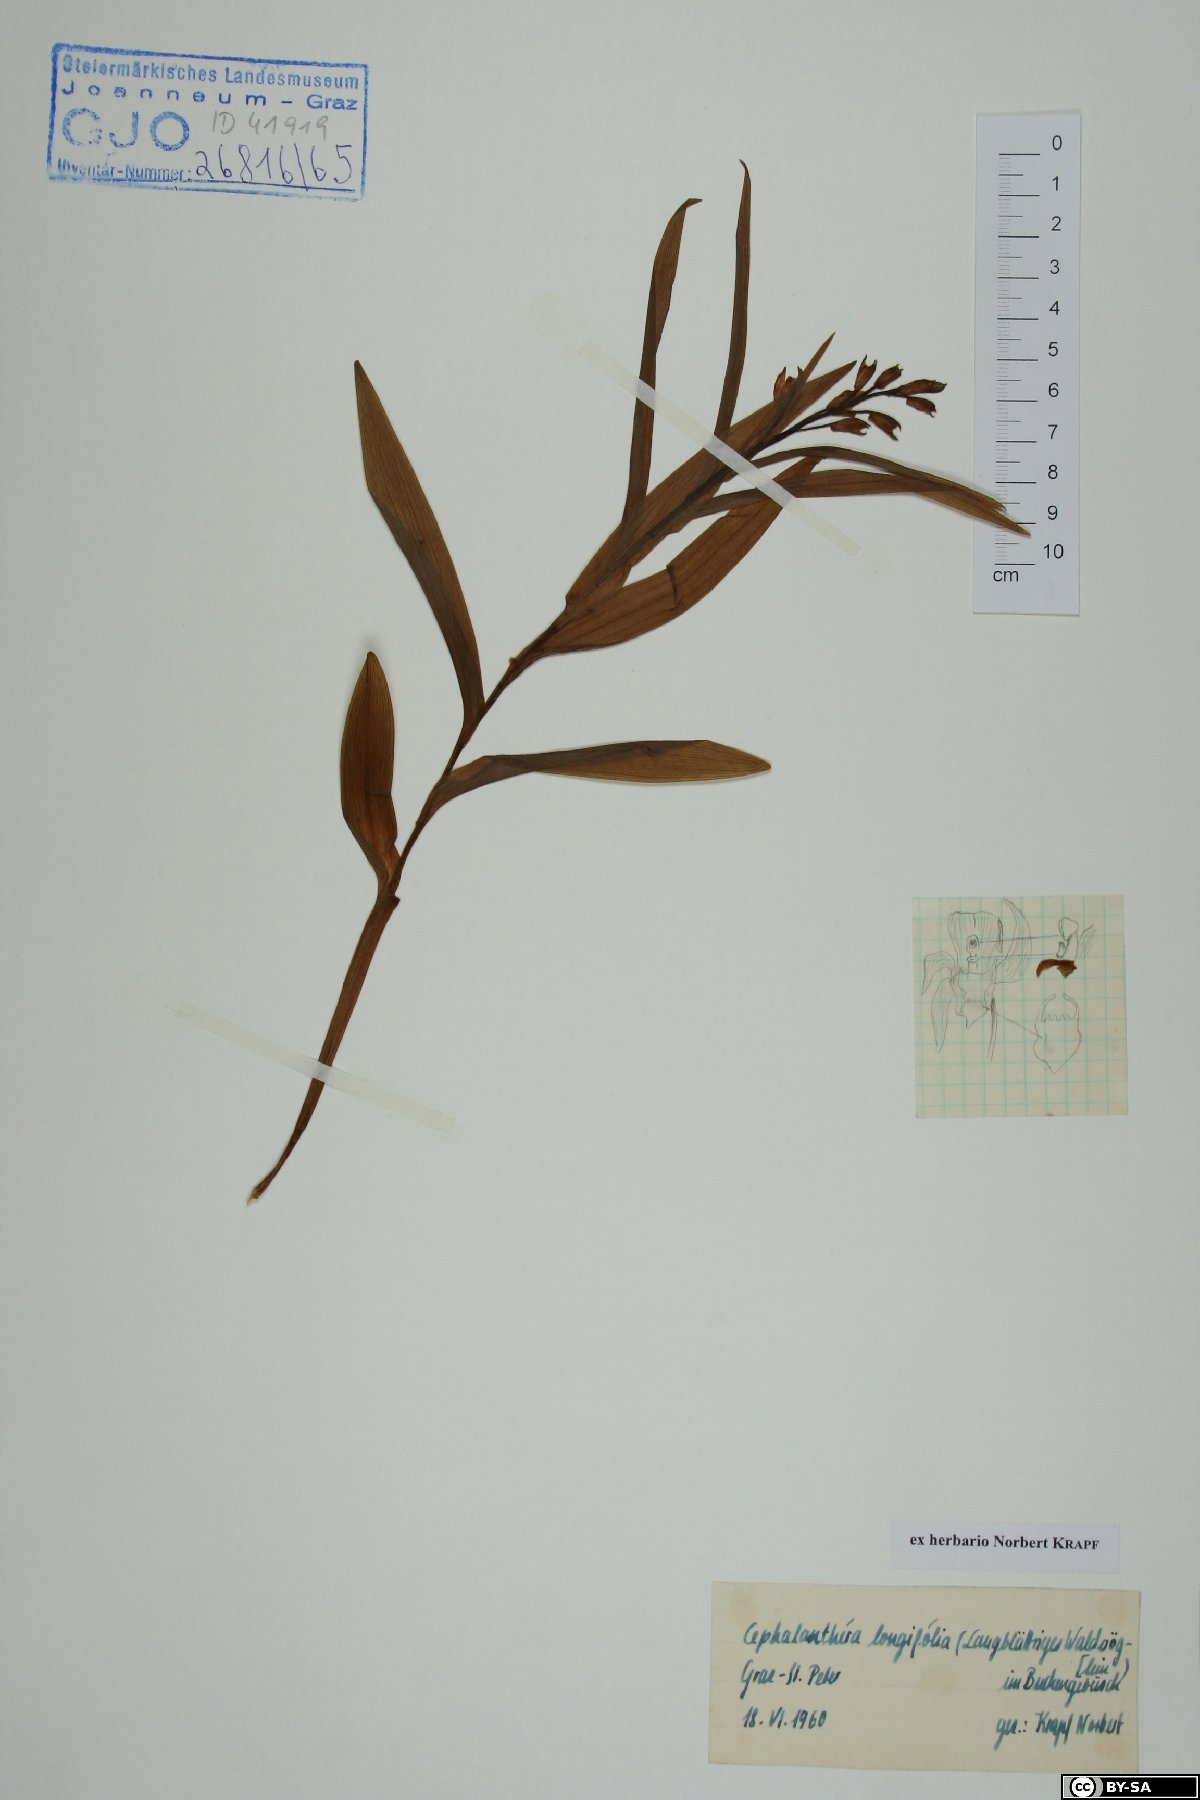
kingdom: Plantae
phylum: Tracheophyta
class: Liliopsida
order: Asparagales
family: Orchidaceae
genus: Cephalanthera
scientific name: Cephalanthera longifolia
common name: Narrow-leaved helleborine
